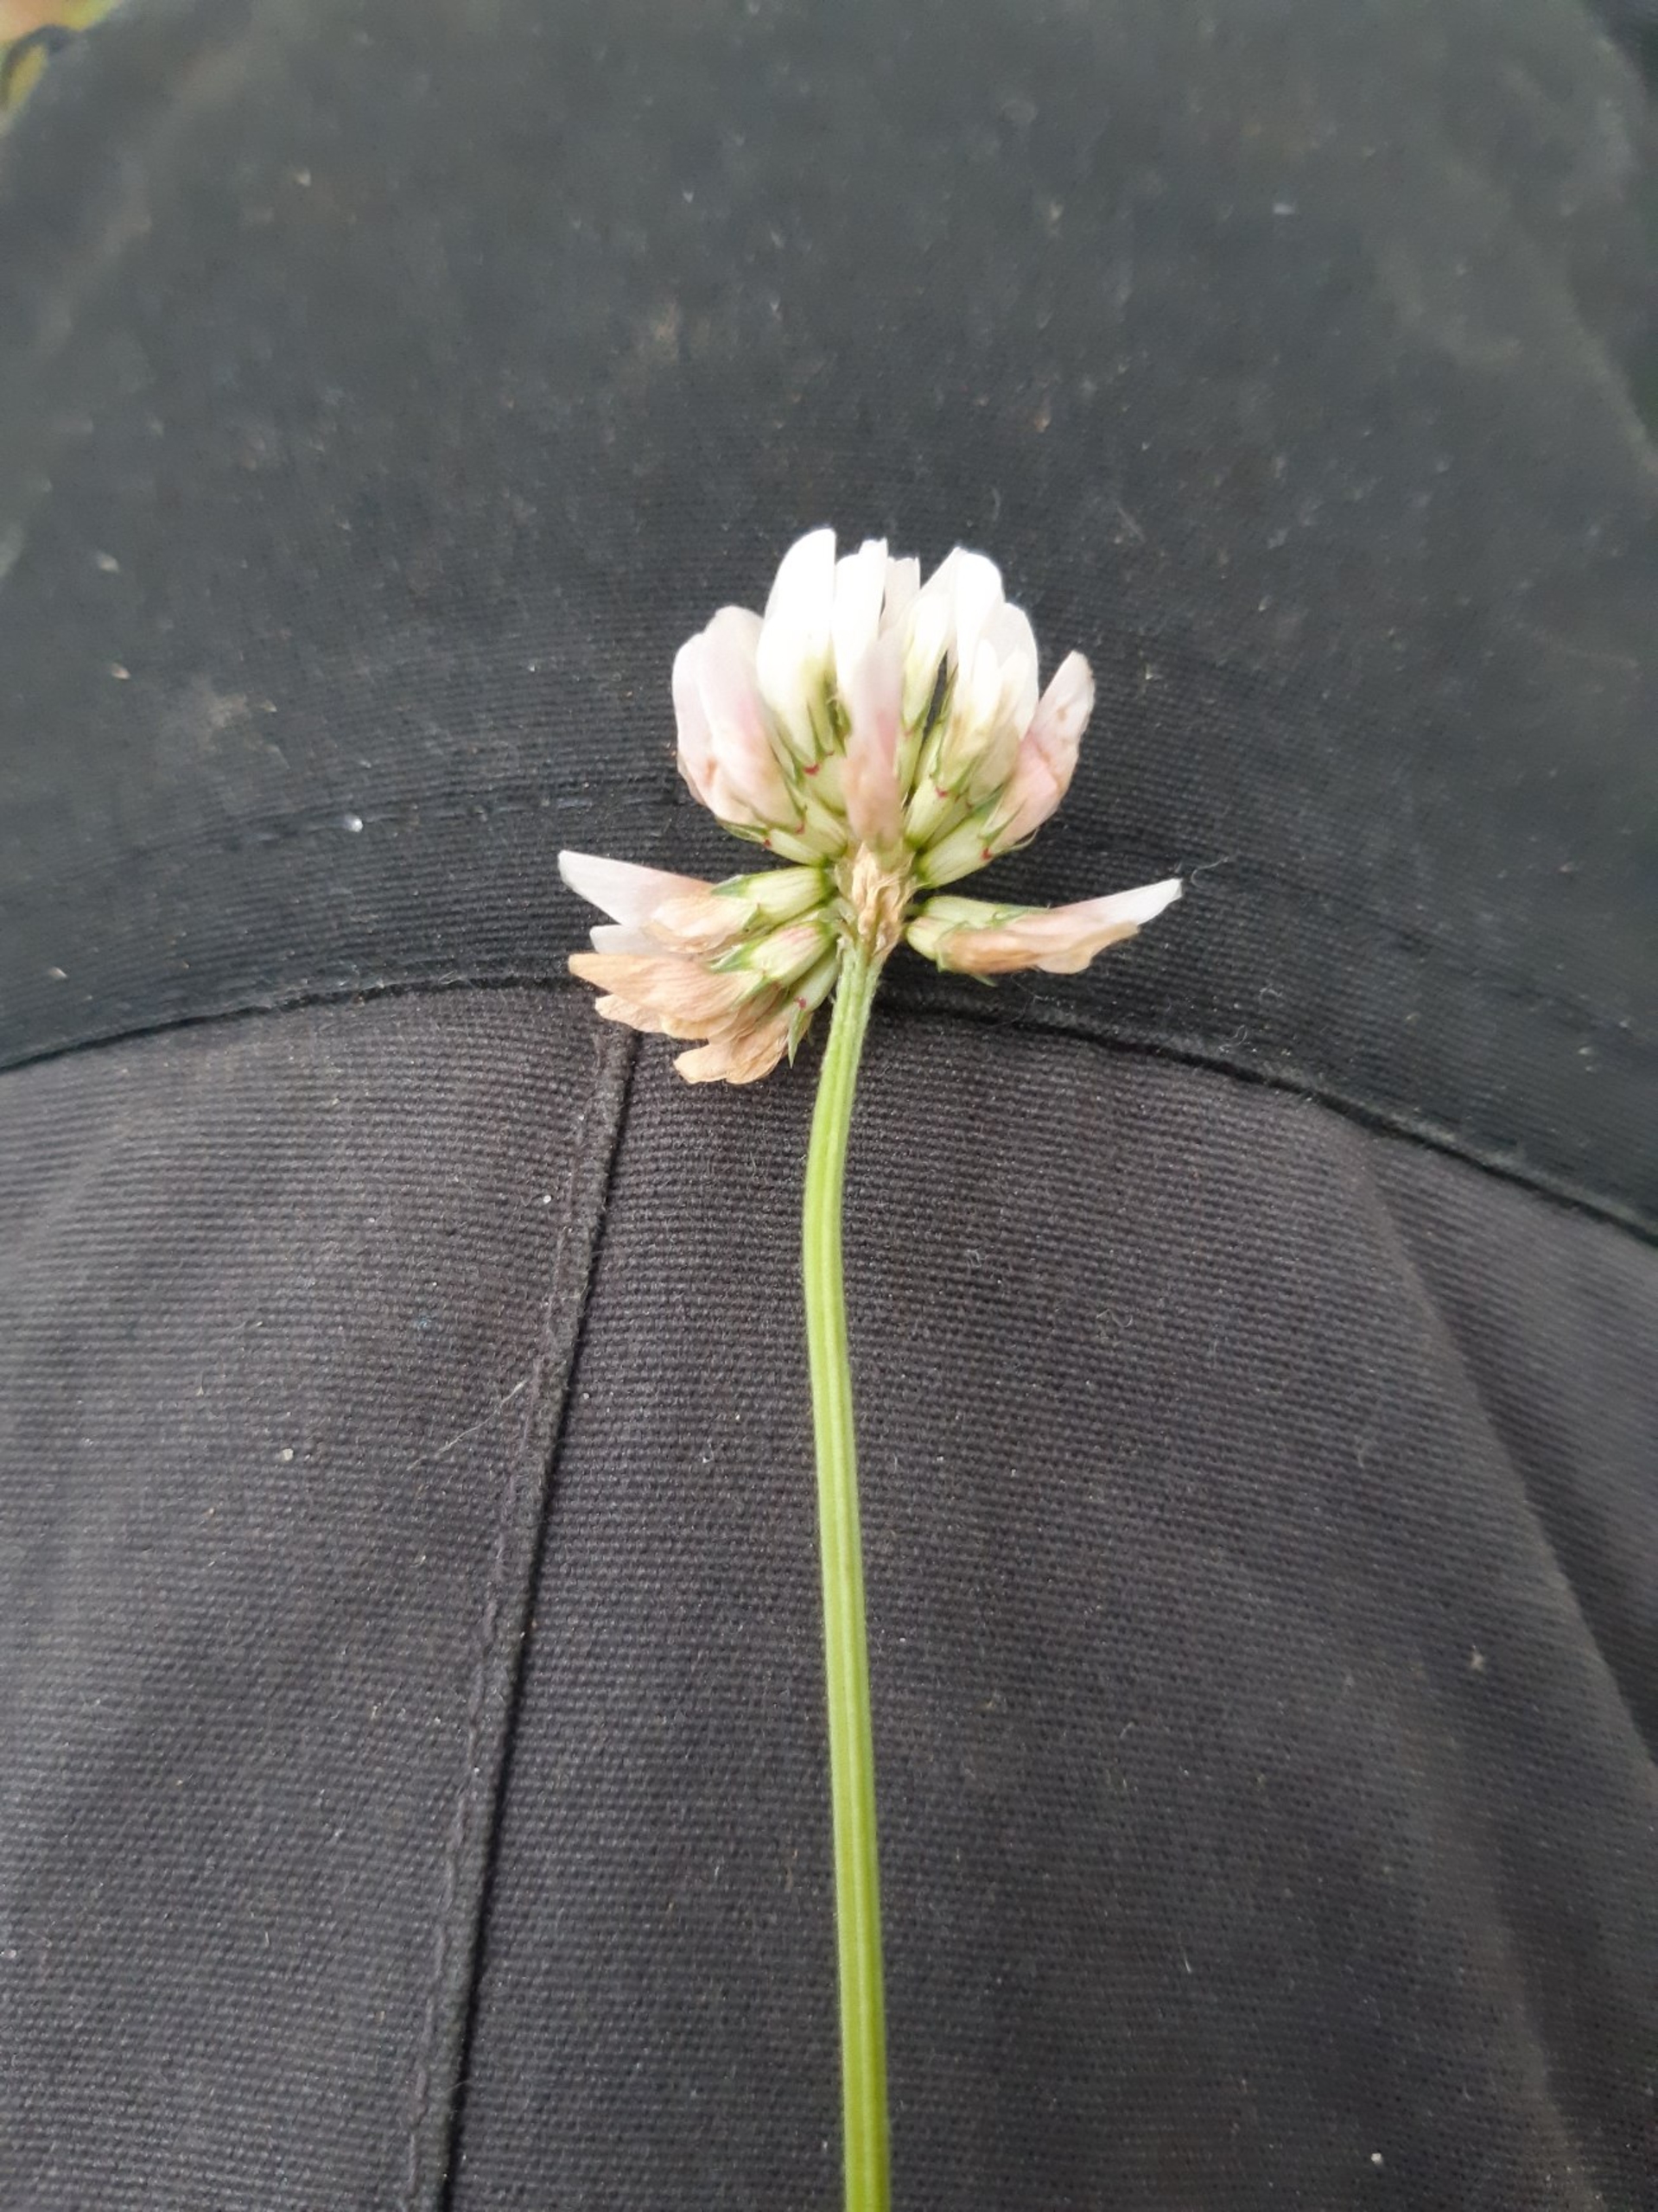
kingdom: Plantae
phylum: Tracheophyta
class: Magnoliopsida
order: Fabales
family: Fabaceae
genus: Trifolium
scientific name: Trifolium repens
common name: Hvid-kløver
